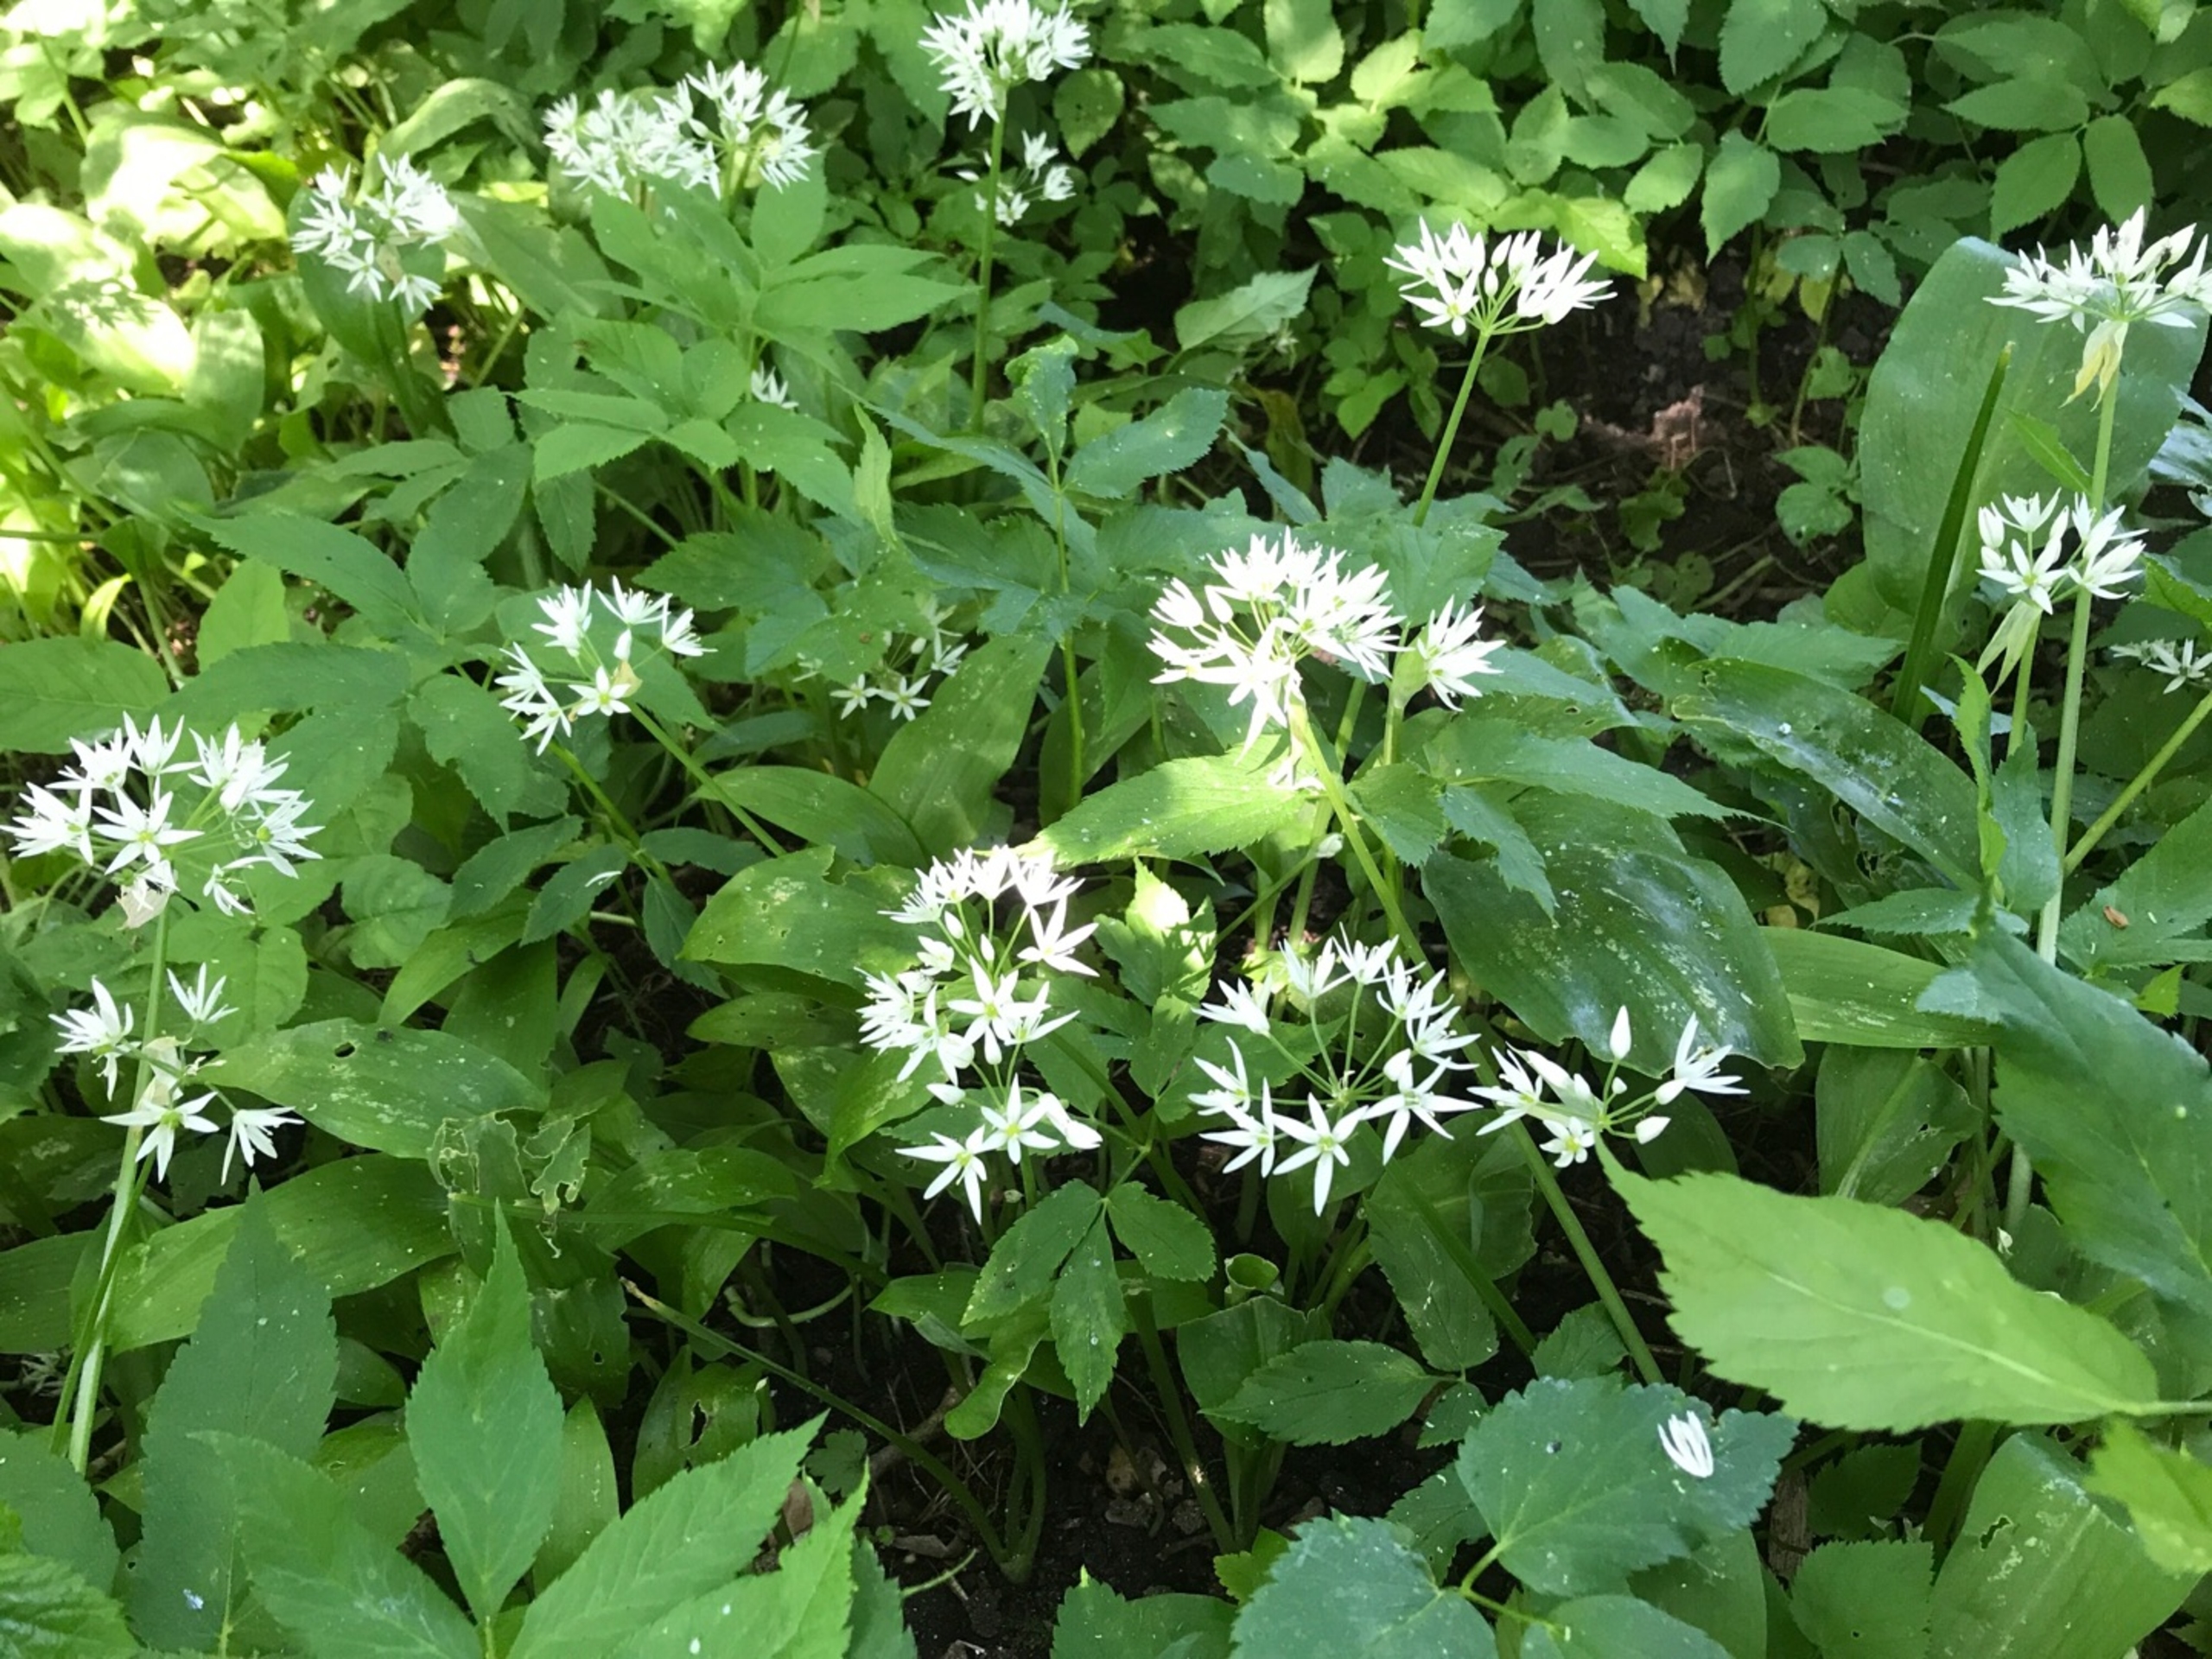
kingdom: Plantae
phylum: Tracheophyta
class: Liliopsida
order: Asparagales
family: Amaryllidaceae
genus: Allium
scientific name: Allium ursinum
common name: Rams-løg
